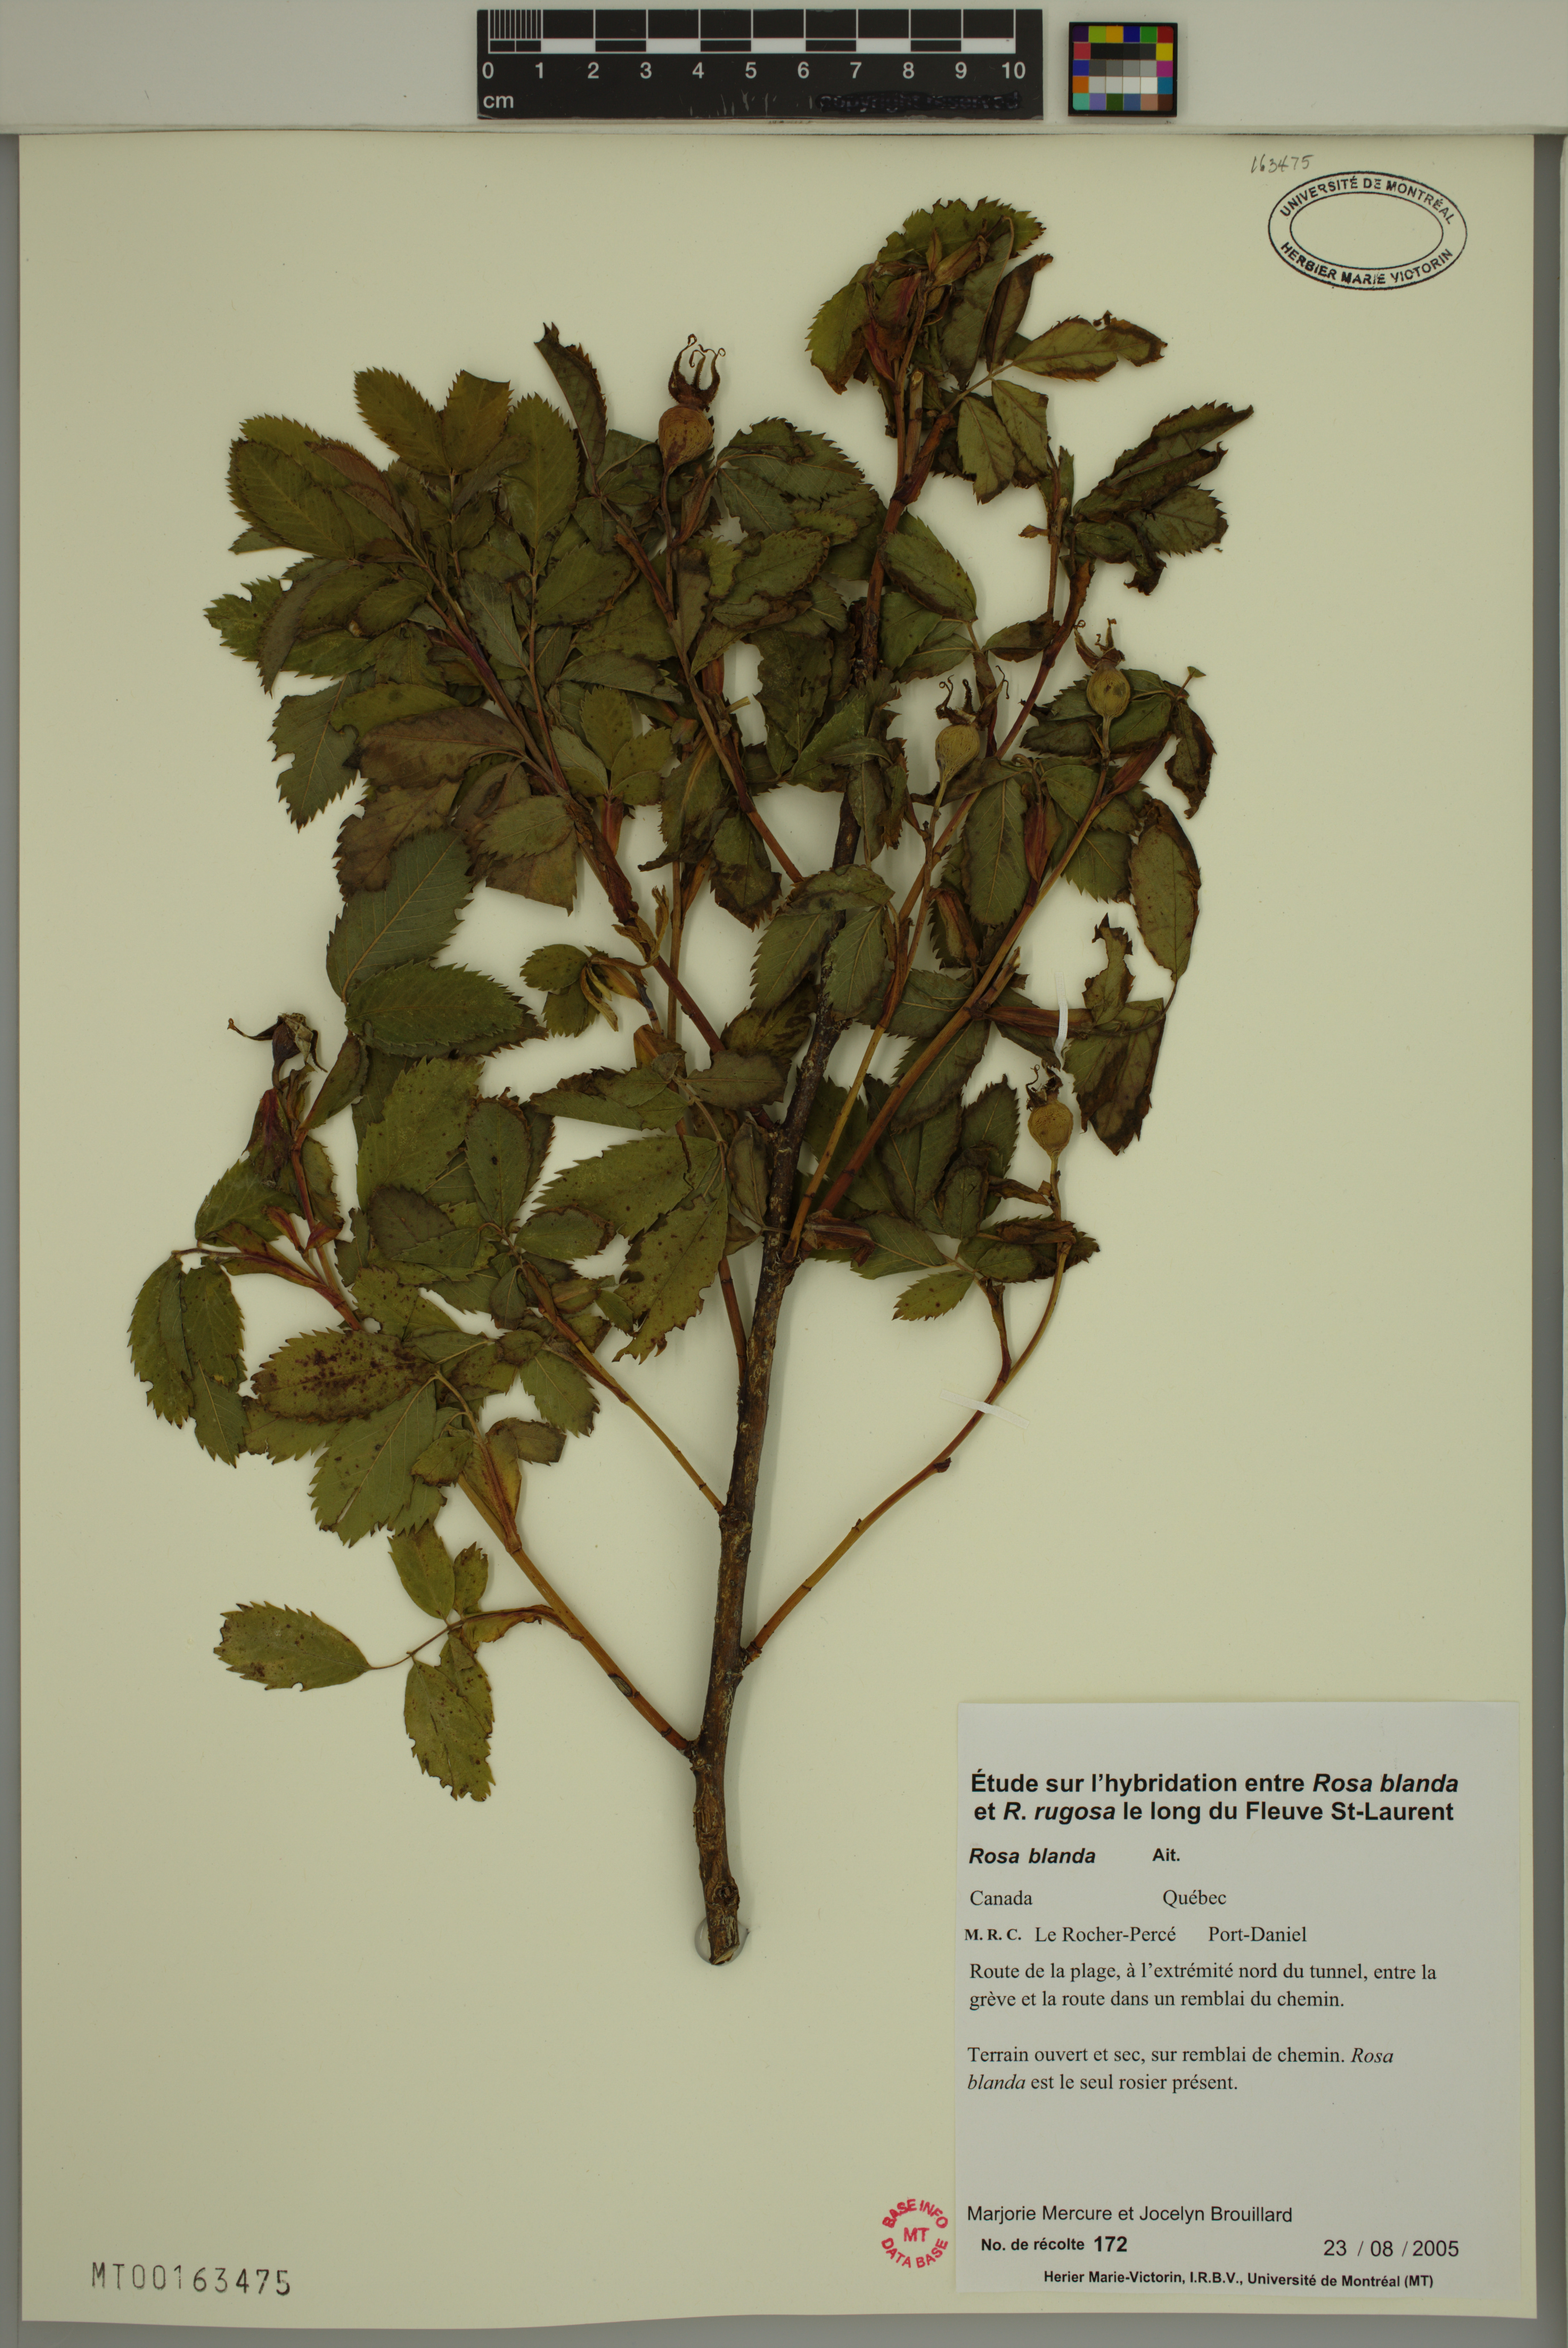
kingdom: Plantae
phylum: Tracheophyta
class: Magnoliopsida
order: Rosales
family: Rosaceae
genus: Rosa
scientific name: Rosa blanda
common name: Smooth rose
